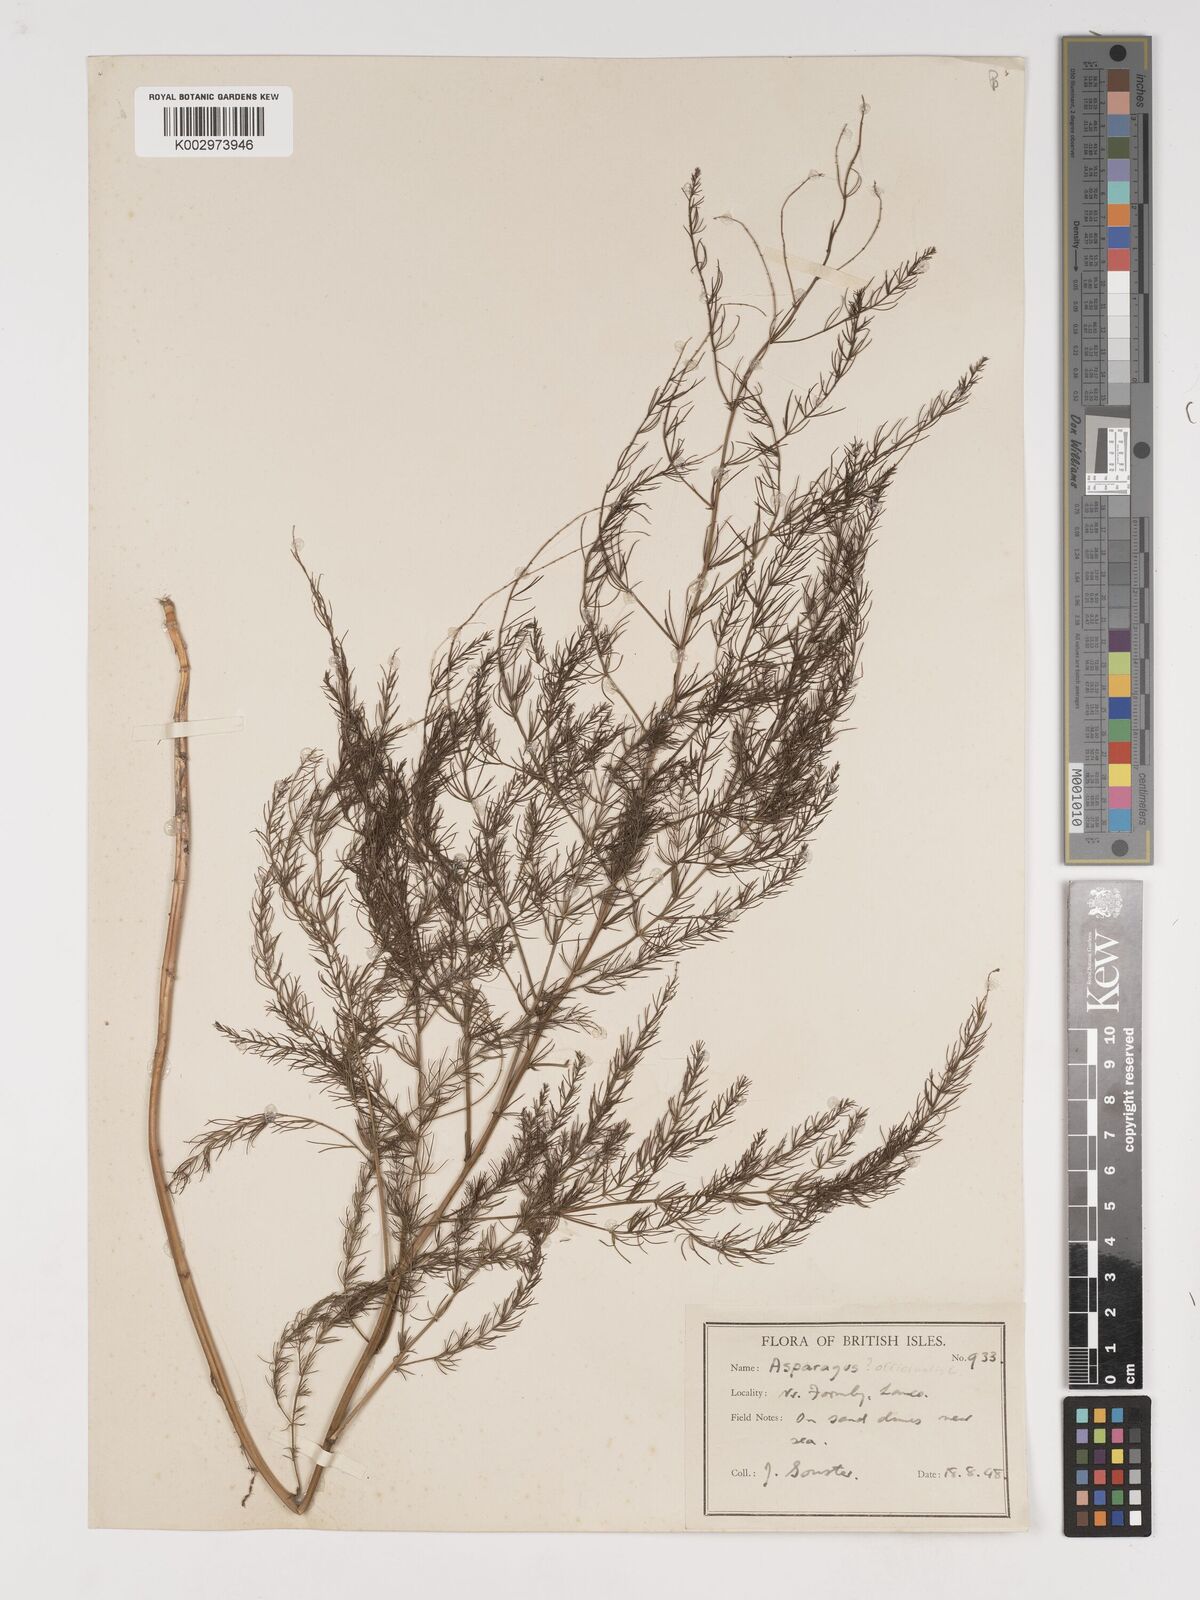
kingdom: Plantae
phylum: Tracheophyta
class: Liliopsida
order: Asparagales
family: Asparagaceae
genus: Asparagus
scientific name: Asparagus officinalis
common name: Garden asparagus
